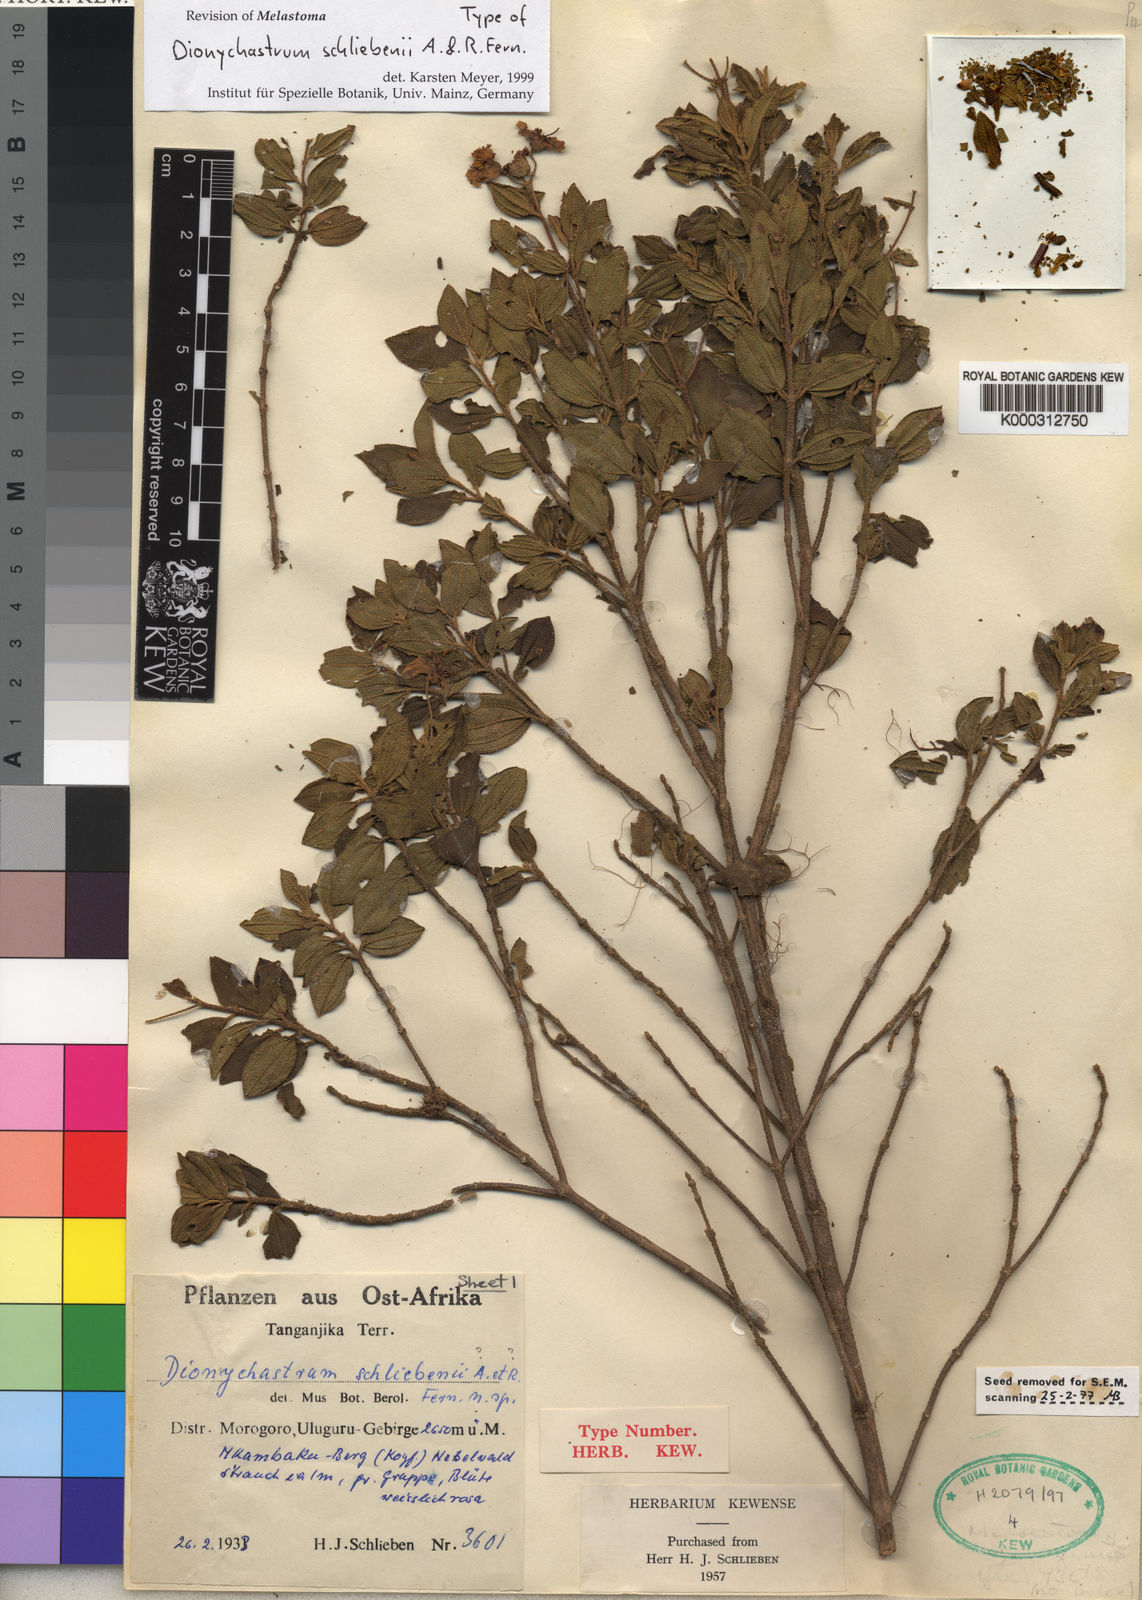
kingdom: Plantae
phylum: Tracheophyta
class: Magnoliopsida
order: Myrtales
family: Melastomataceae
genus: Dionychastrum
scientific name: Dionychastrum schliebenii
